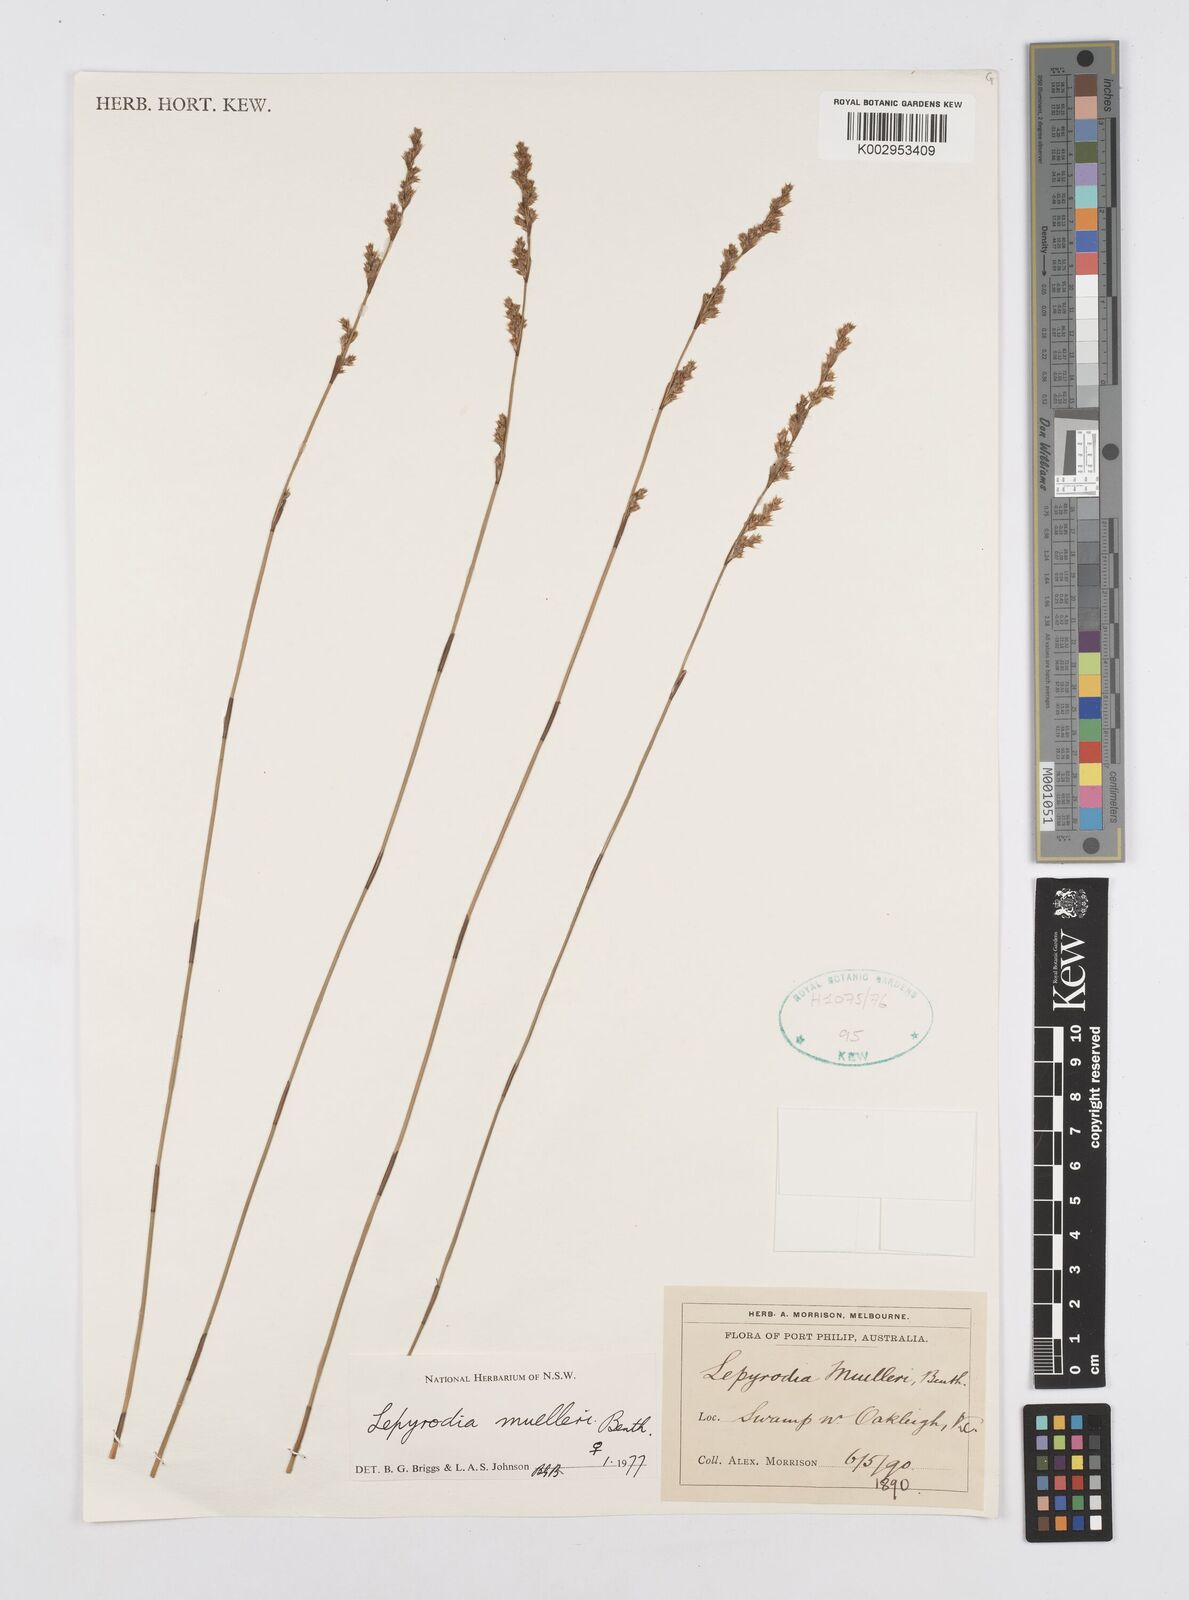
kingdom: Plantae
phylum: Tracheophyta
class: Liliopsida
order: Poales
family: Restionaceae
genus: Lepyrodia
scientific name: Lepyrodia muelleri
